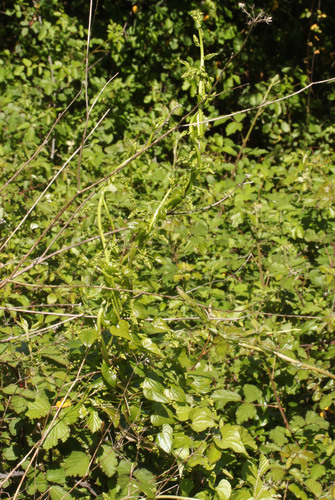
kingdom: Plantae
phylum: Tracheophyta
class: Liliopsida
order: Dioscoreales
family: Dioscoreaceae
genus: Dioscorea
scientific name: Dioscorea communis
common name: Black-bindweed
